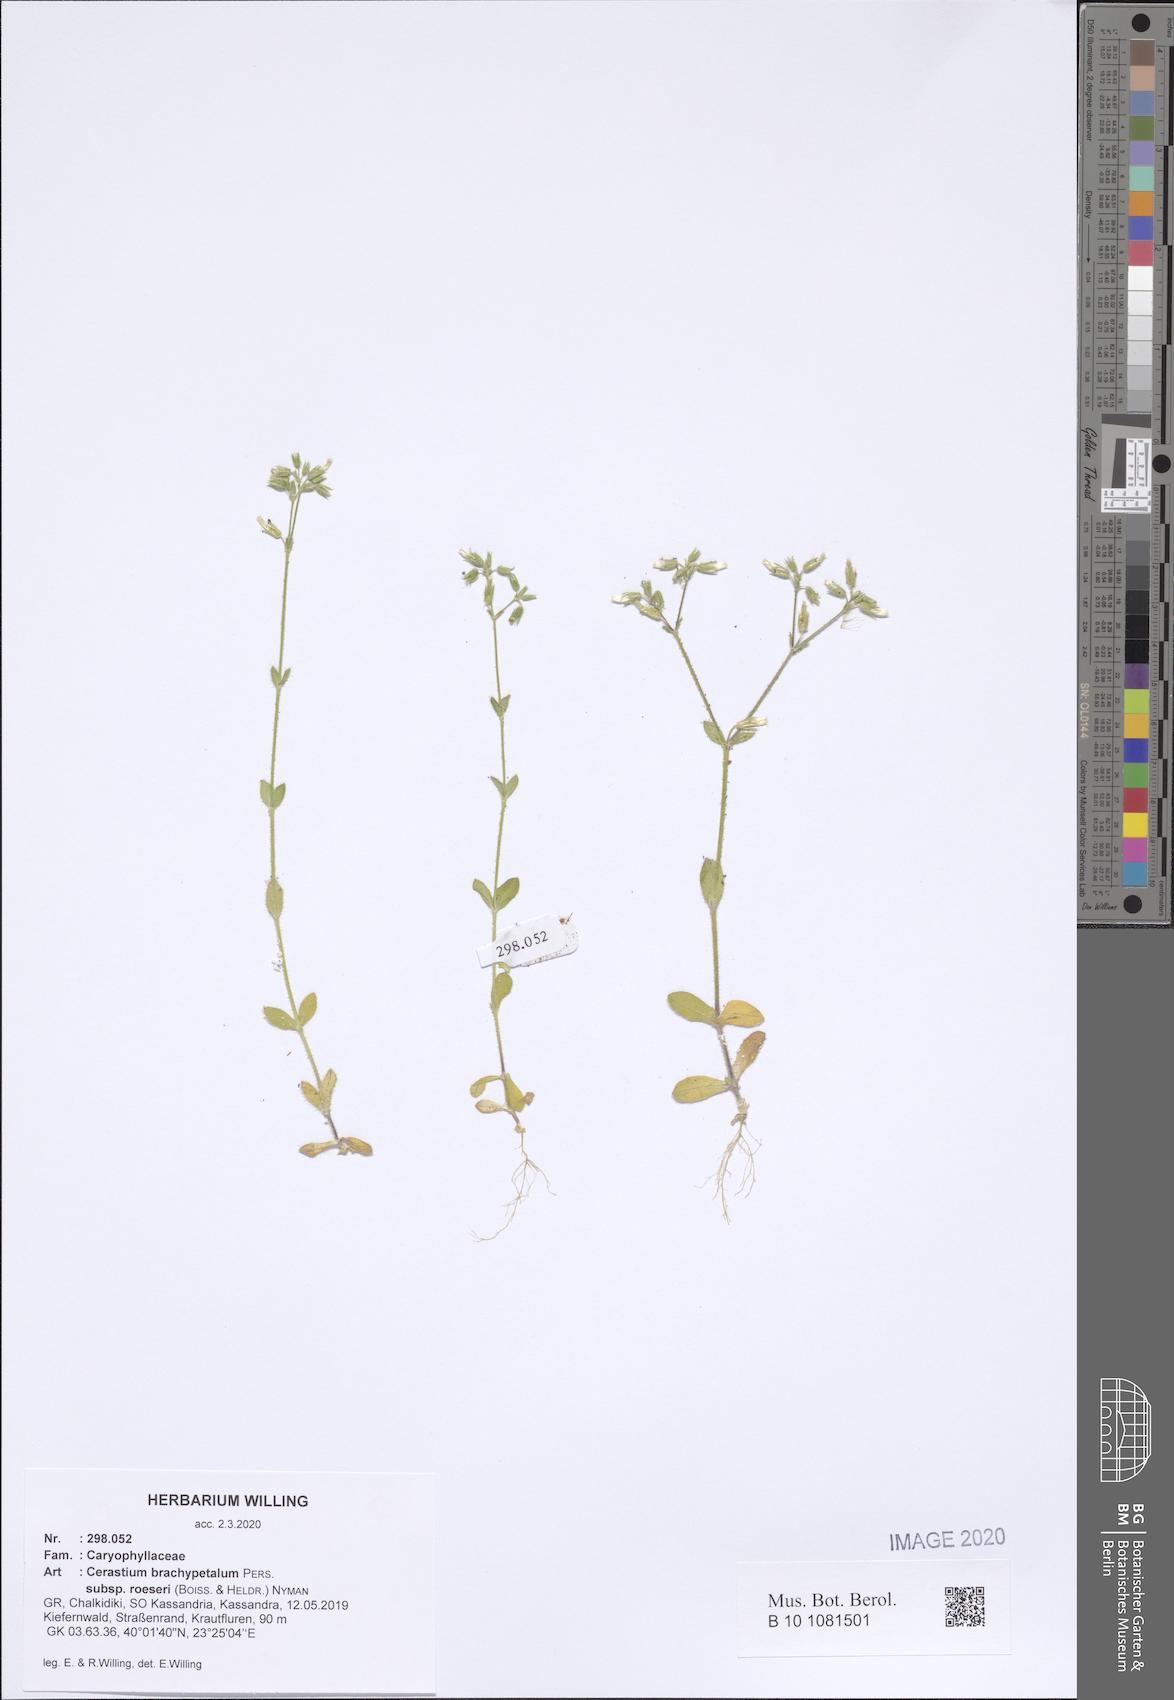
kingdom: Plantae
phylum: Tracheophyta
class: Magnoliopsida
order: Caryophyllales
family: Caryophyllaceae
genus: Cerastium
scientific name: Cerastium brachypetalum
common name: Grey mouse-ear
